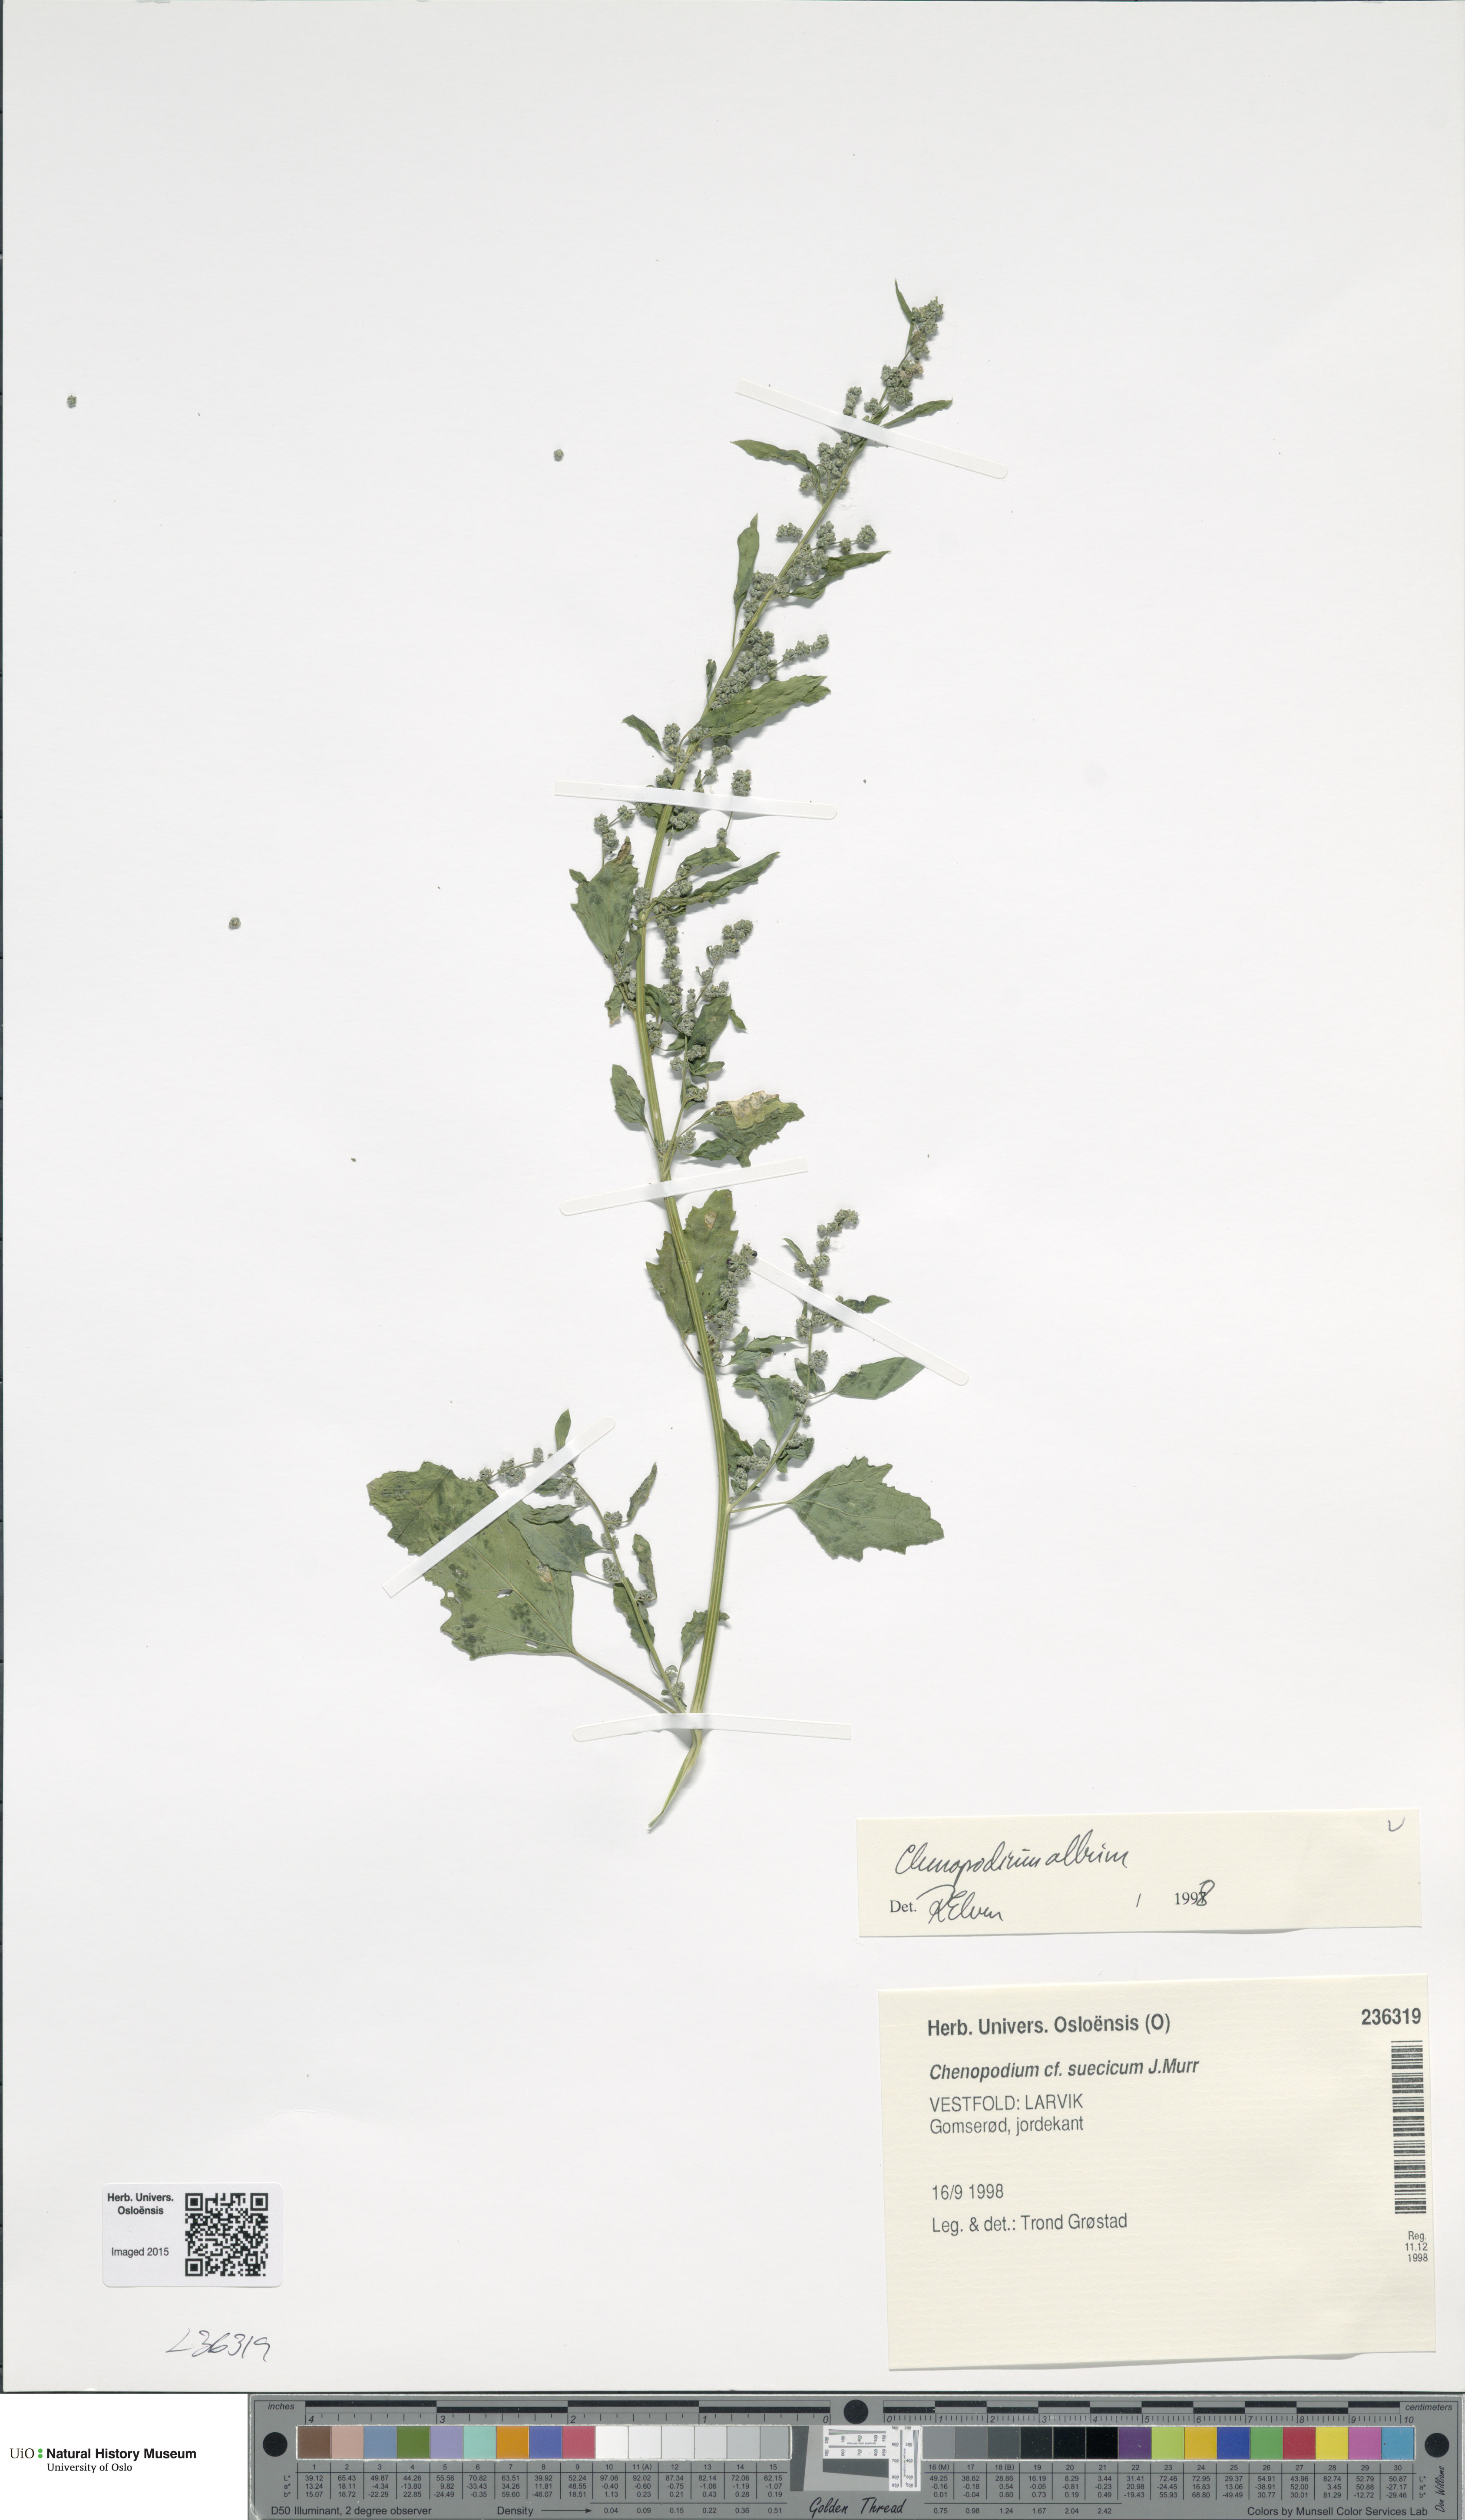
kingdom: Plantae
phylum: Tracheophyta
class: Magnoliopsida
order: Caryophyllales
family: Amaranthaceae
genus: Chenopodium
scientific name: Chenopodium album
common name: Fat-hen
